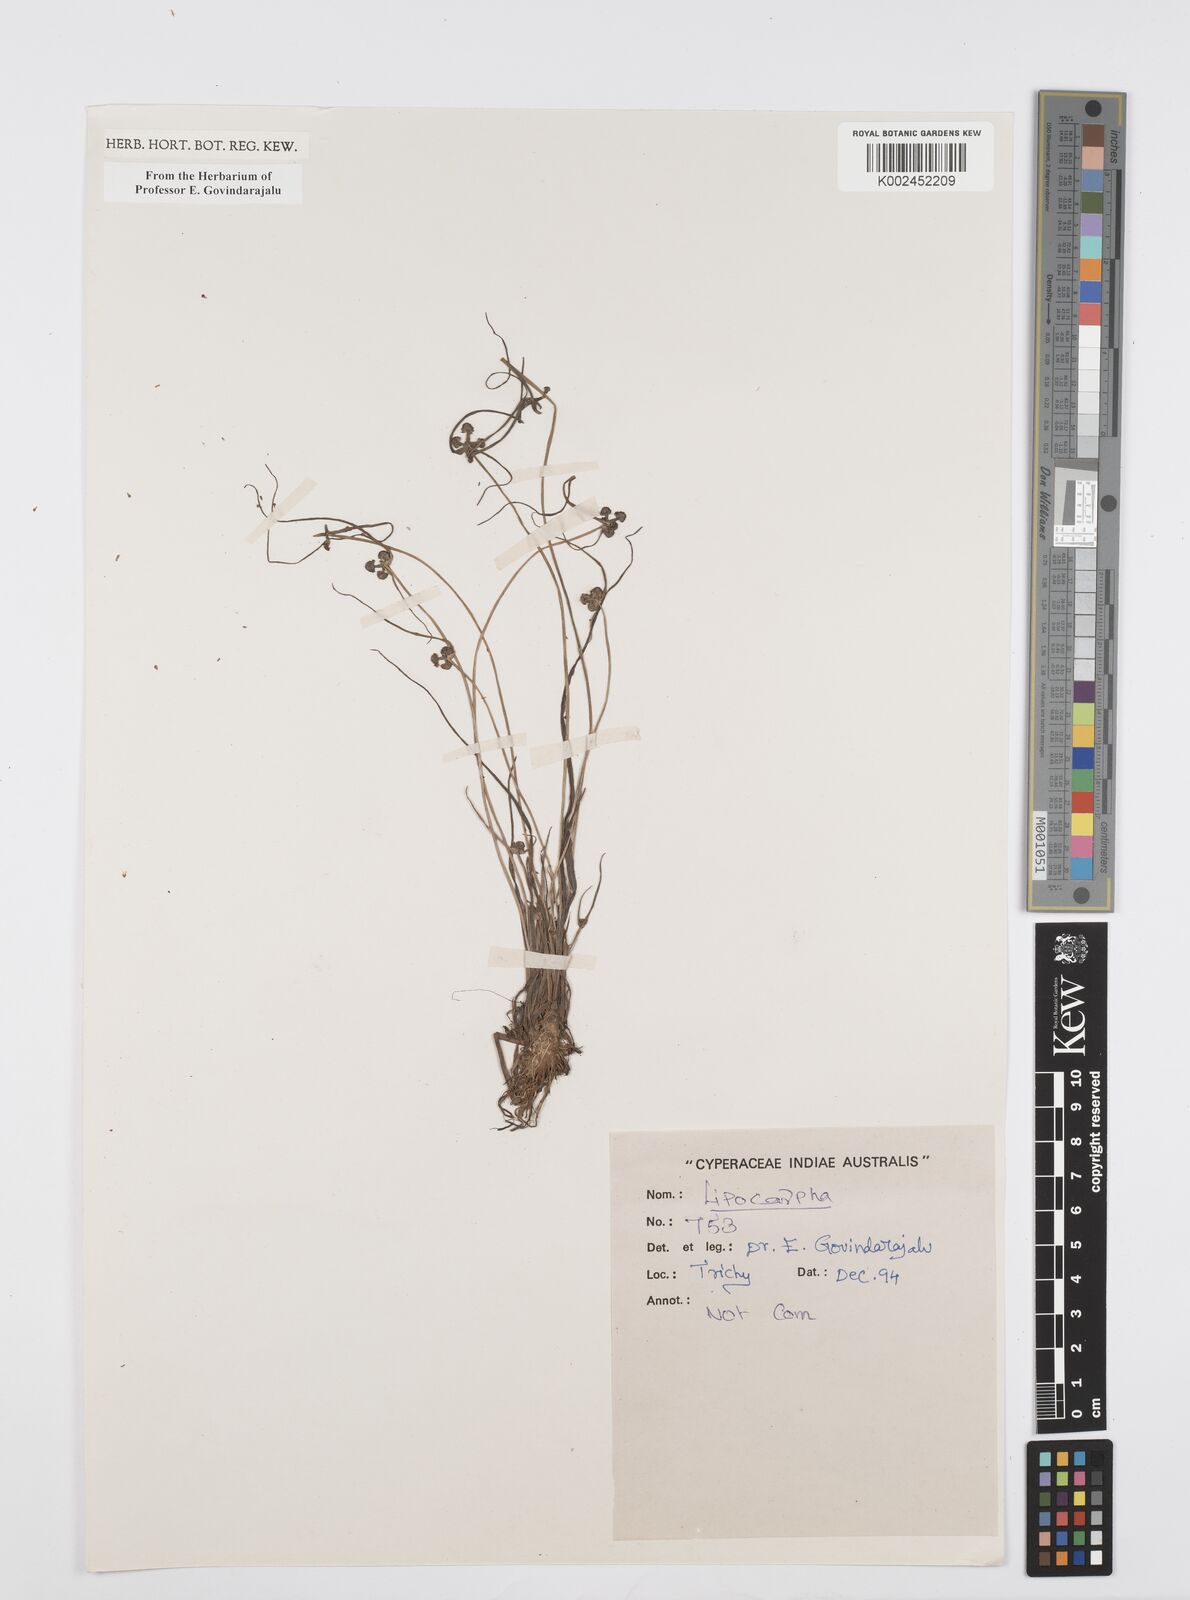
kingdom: Plantae
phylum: Tracheophyta
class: Liliopsida
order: Poales
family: Cyperaceae
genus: Cyperus
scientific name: Cyperus
